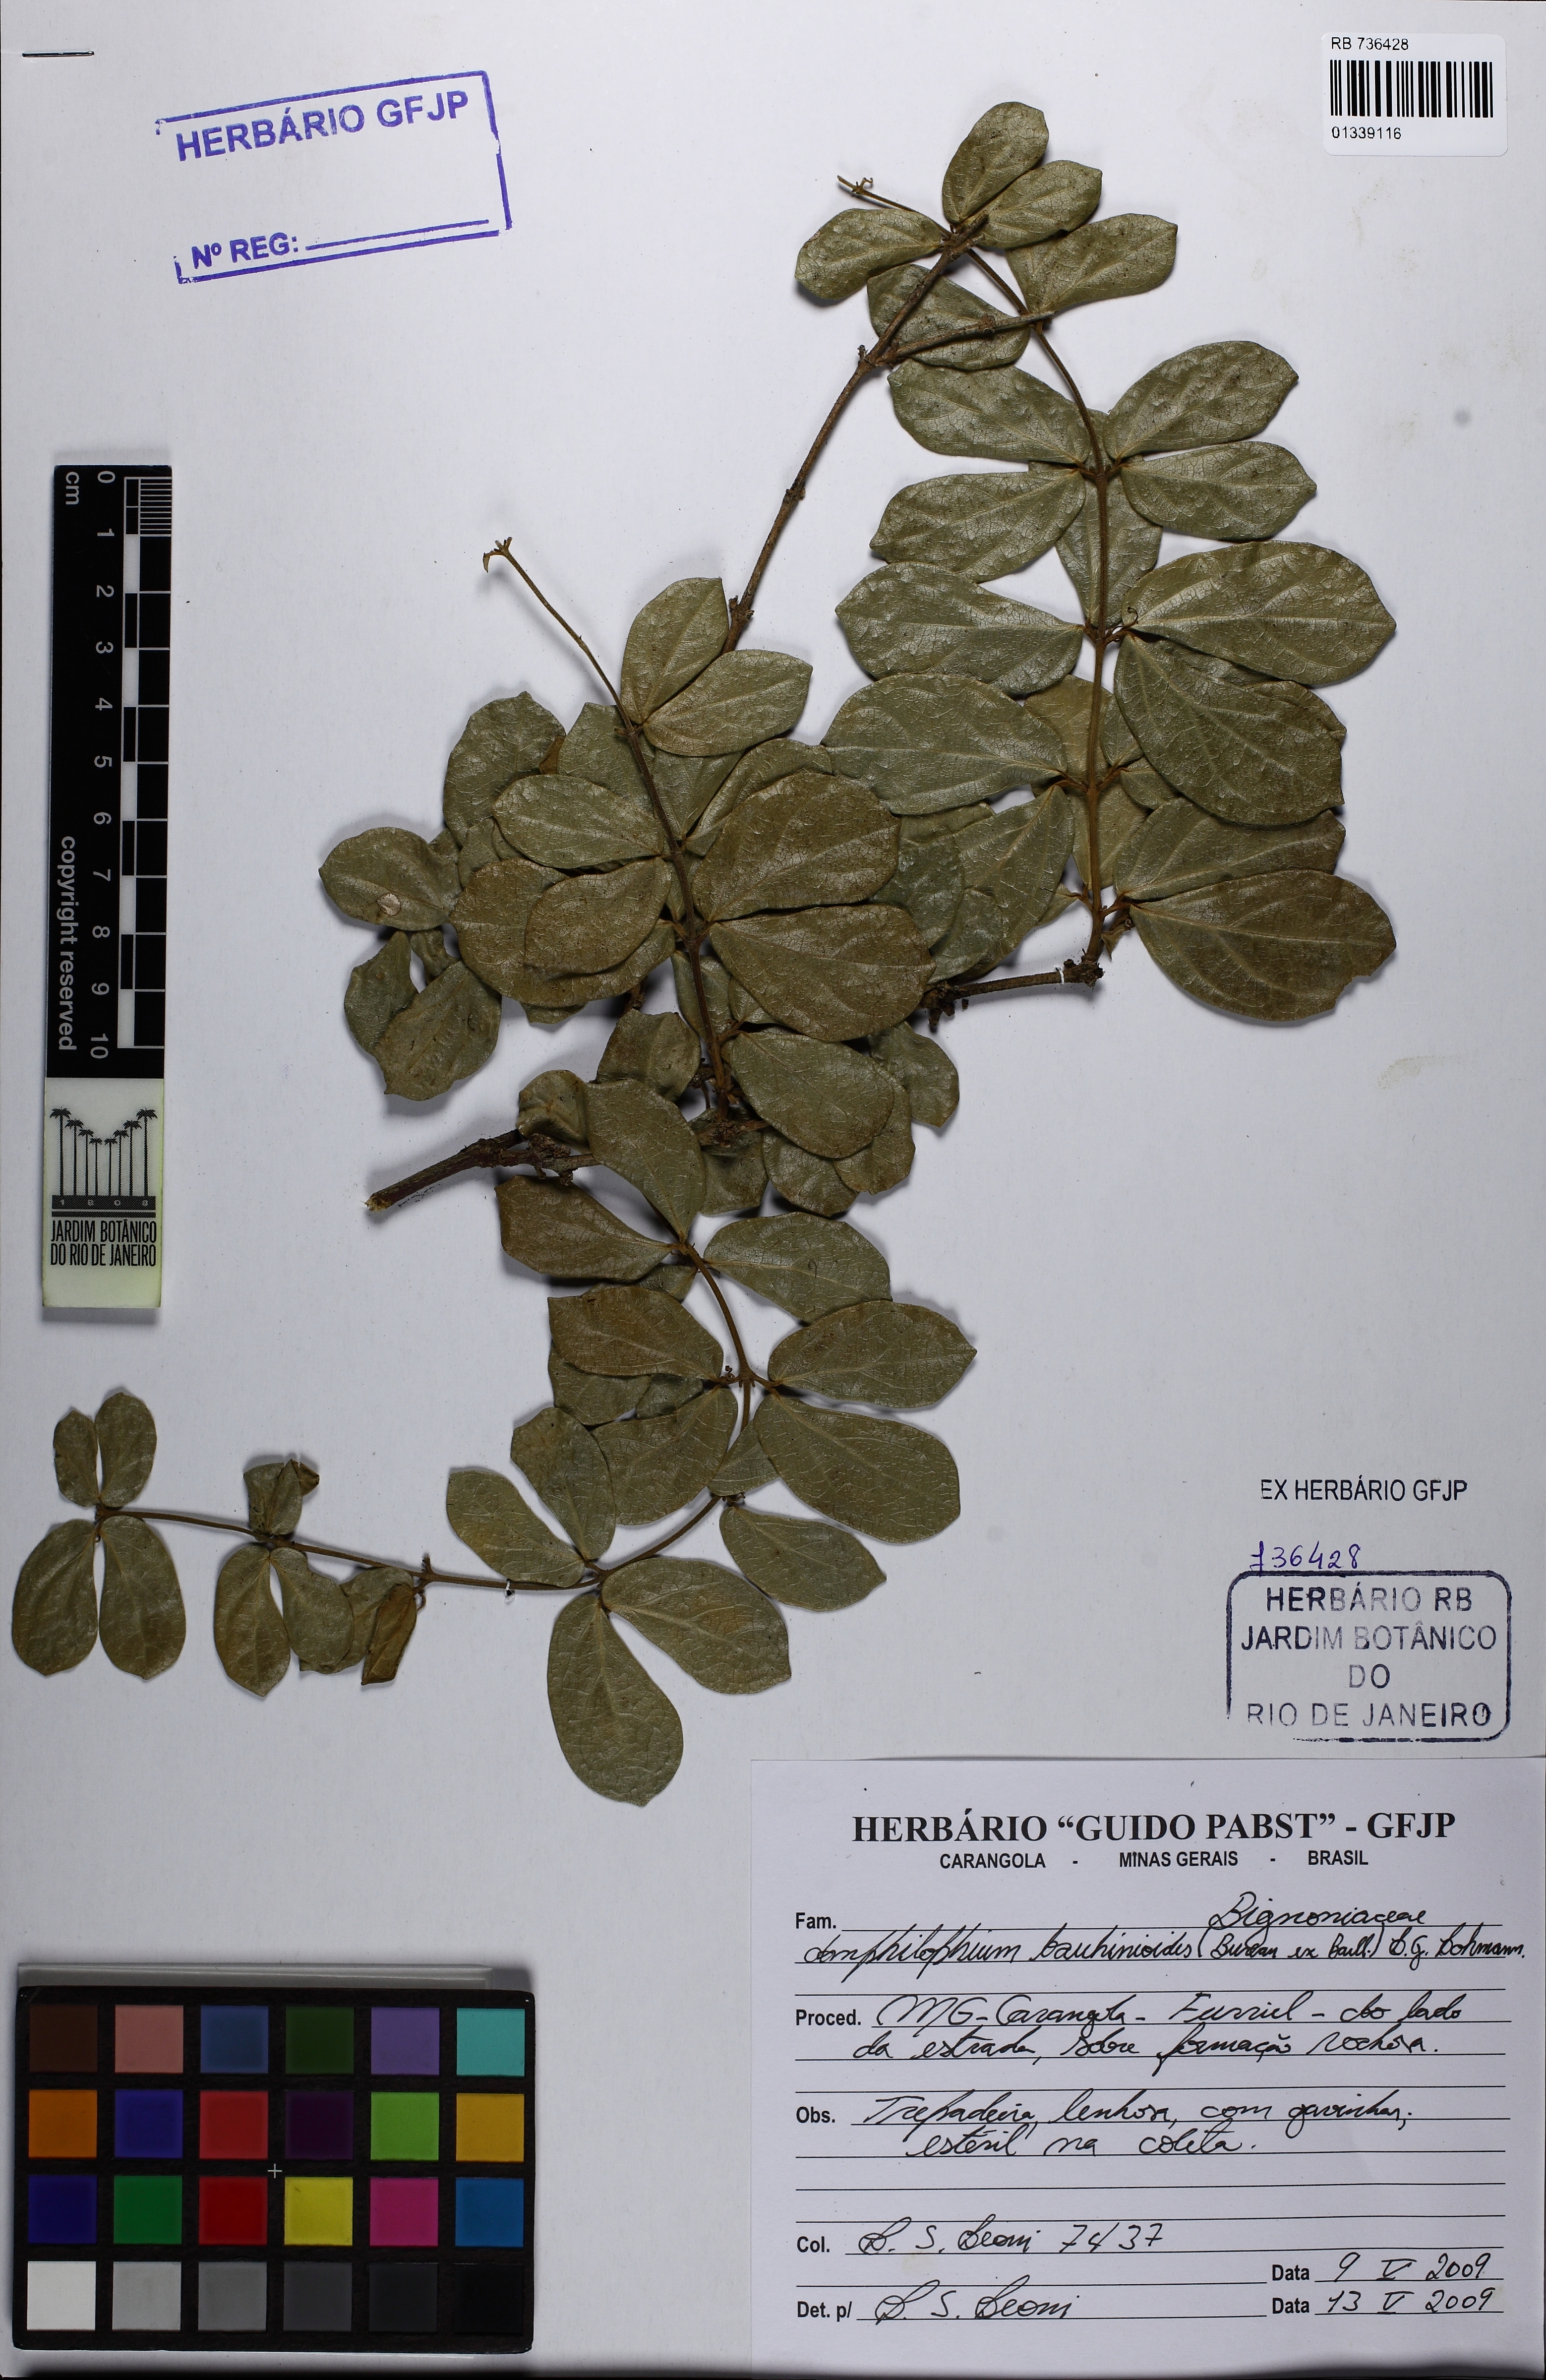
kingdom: Plantae
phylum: Tracheophyta
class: Magnoliopsida
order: Lamiales
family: Bignoniaceae
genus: Amphilophium
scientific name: Amphilophium bauhinioides
